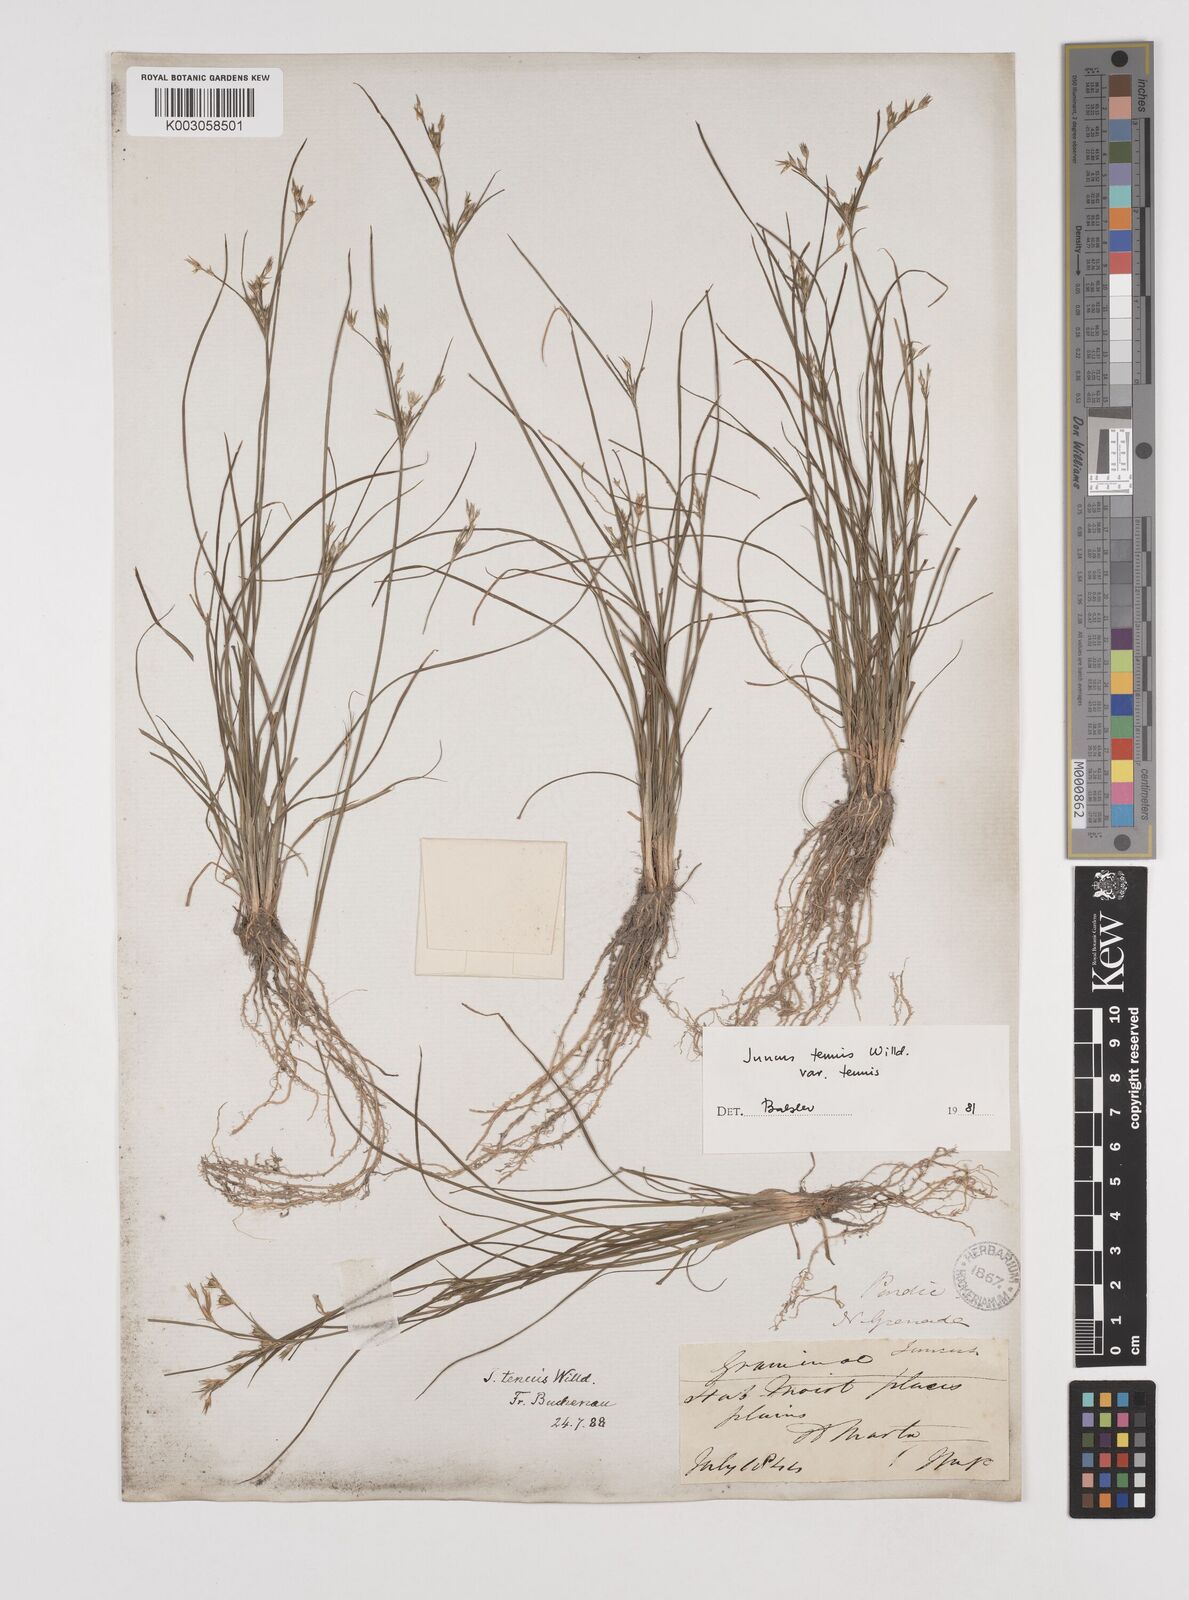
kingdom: Plantae
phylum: Tracheophyta
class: Liliopsida
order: Poales
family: Juncaceae
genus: Juncus
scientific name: Juncus tenuis
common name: Slender rush
